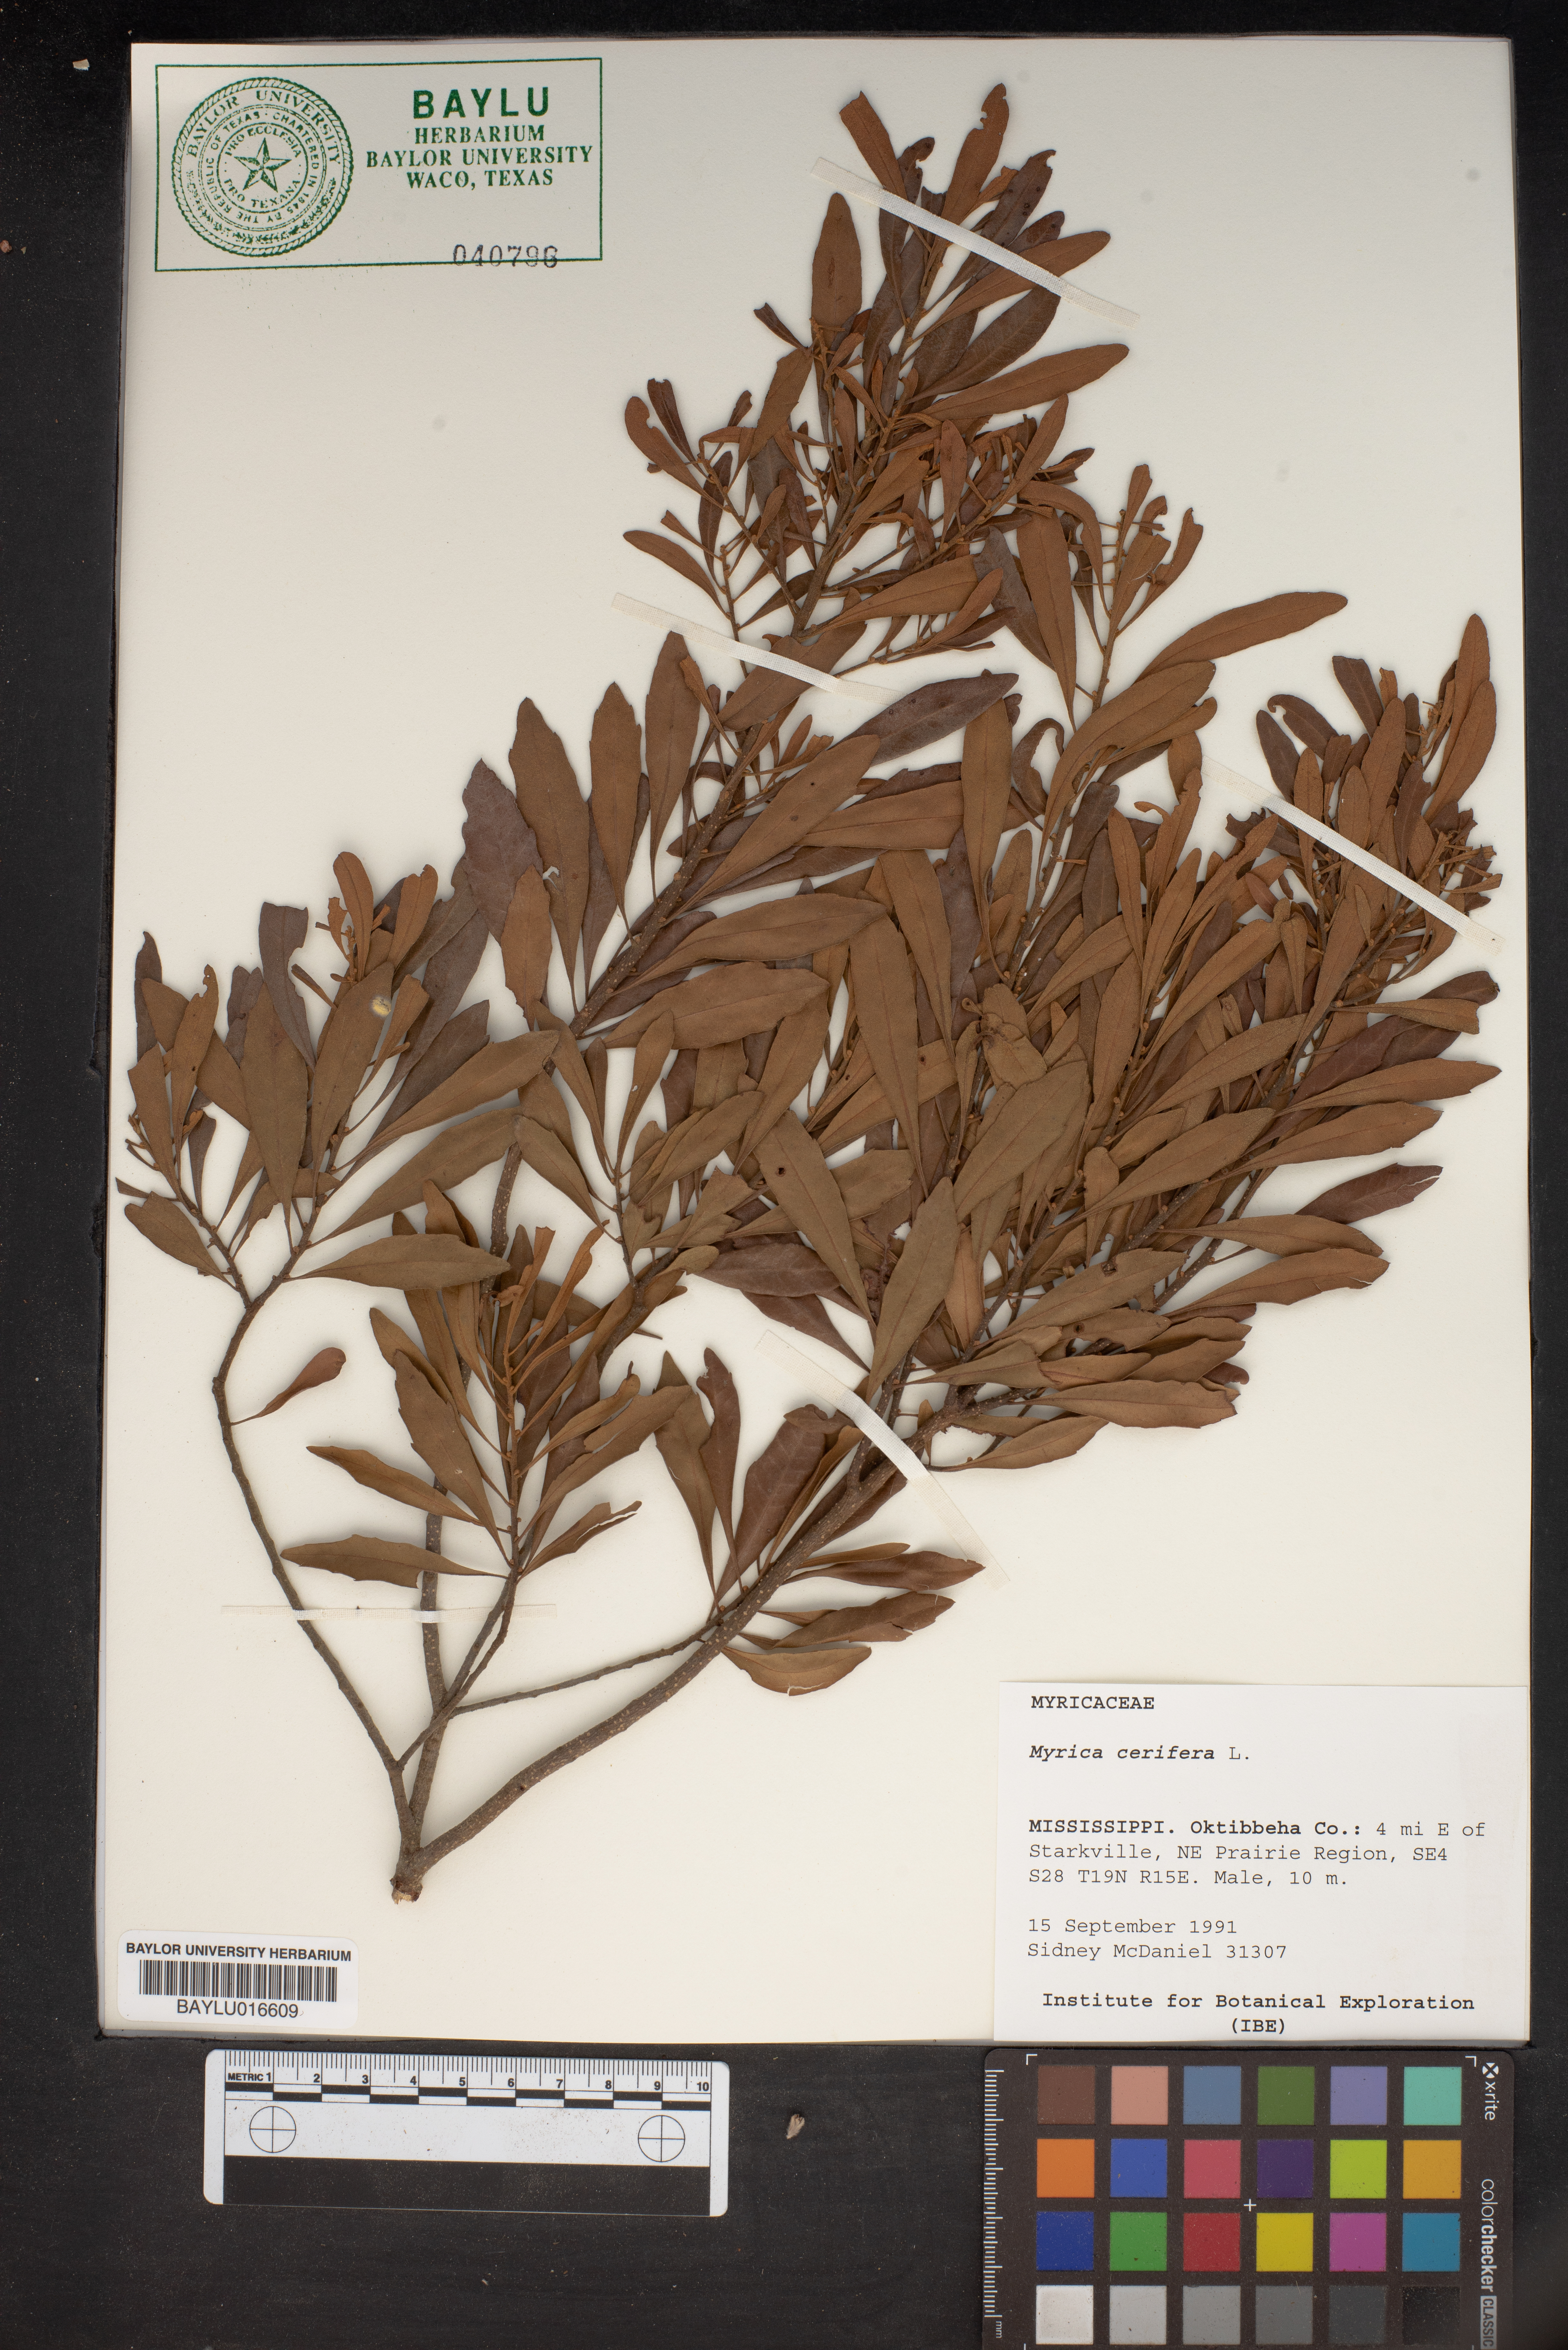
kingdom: Plantae
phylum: Tracheophyta
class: Magnoliopsida
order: Fagales
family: Myricaceae
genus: Morella
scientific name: Morella cerifera
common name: Wax myrtle
